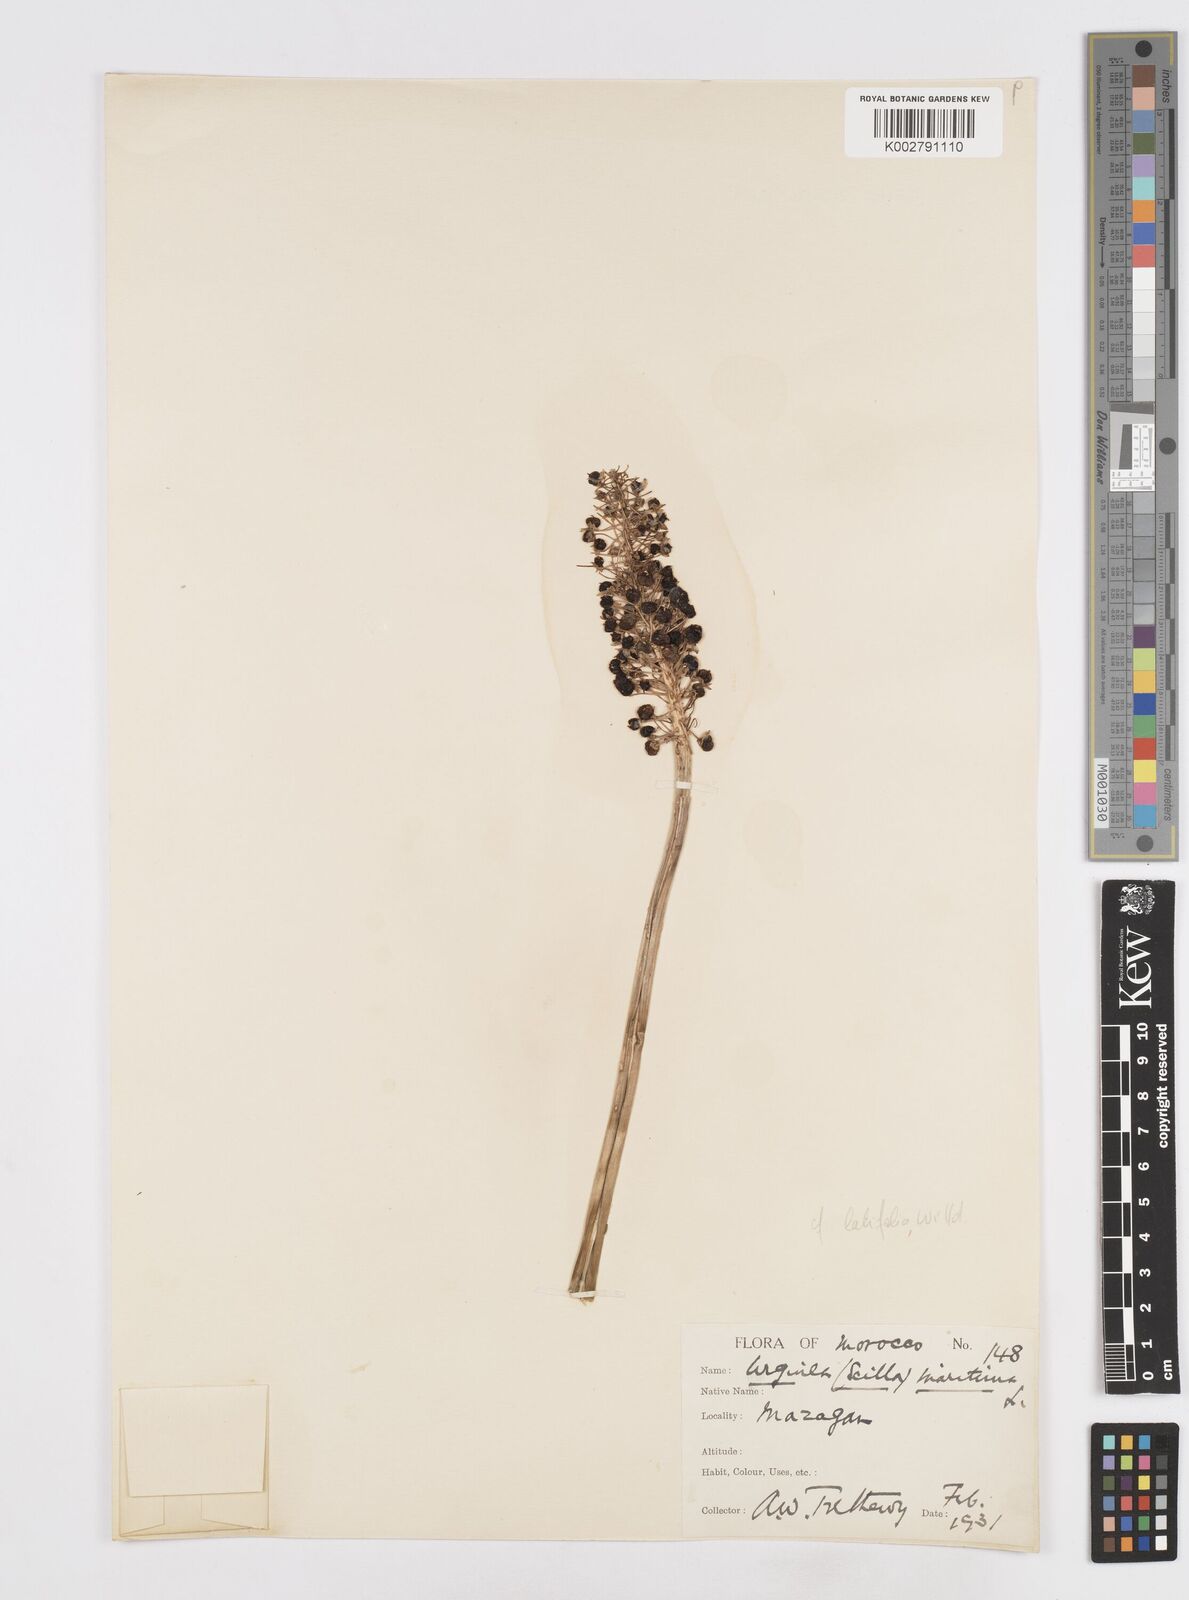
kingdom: Plantae
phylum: Tracheophyta
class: Liliopsida
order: Asparagales
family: Asparagaceae
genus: Scilla
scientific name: Scilla
